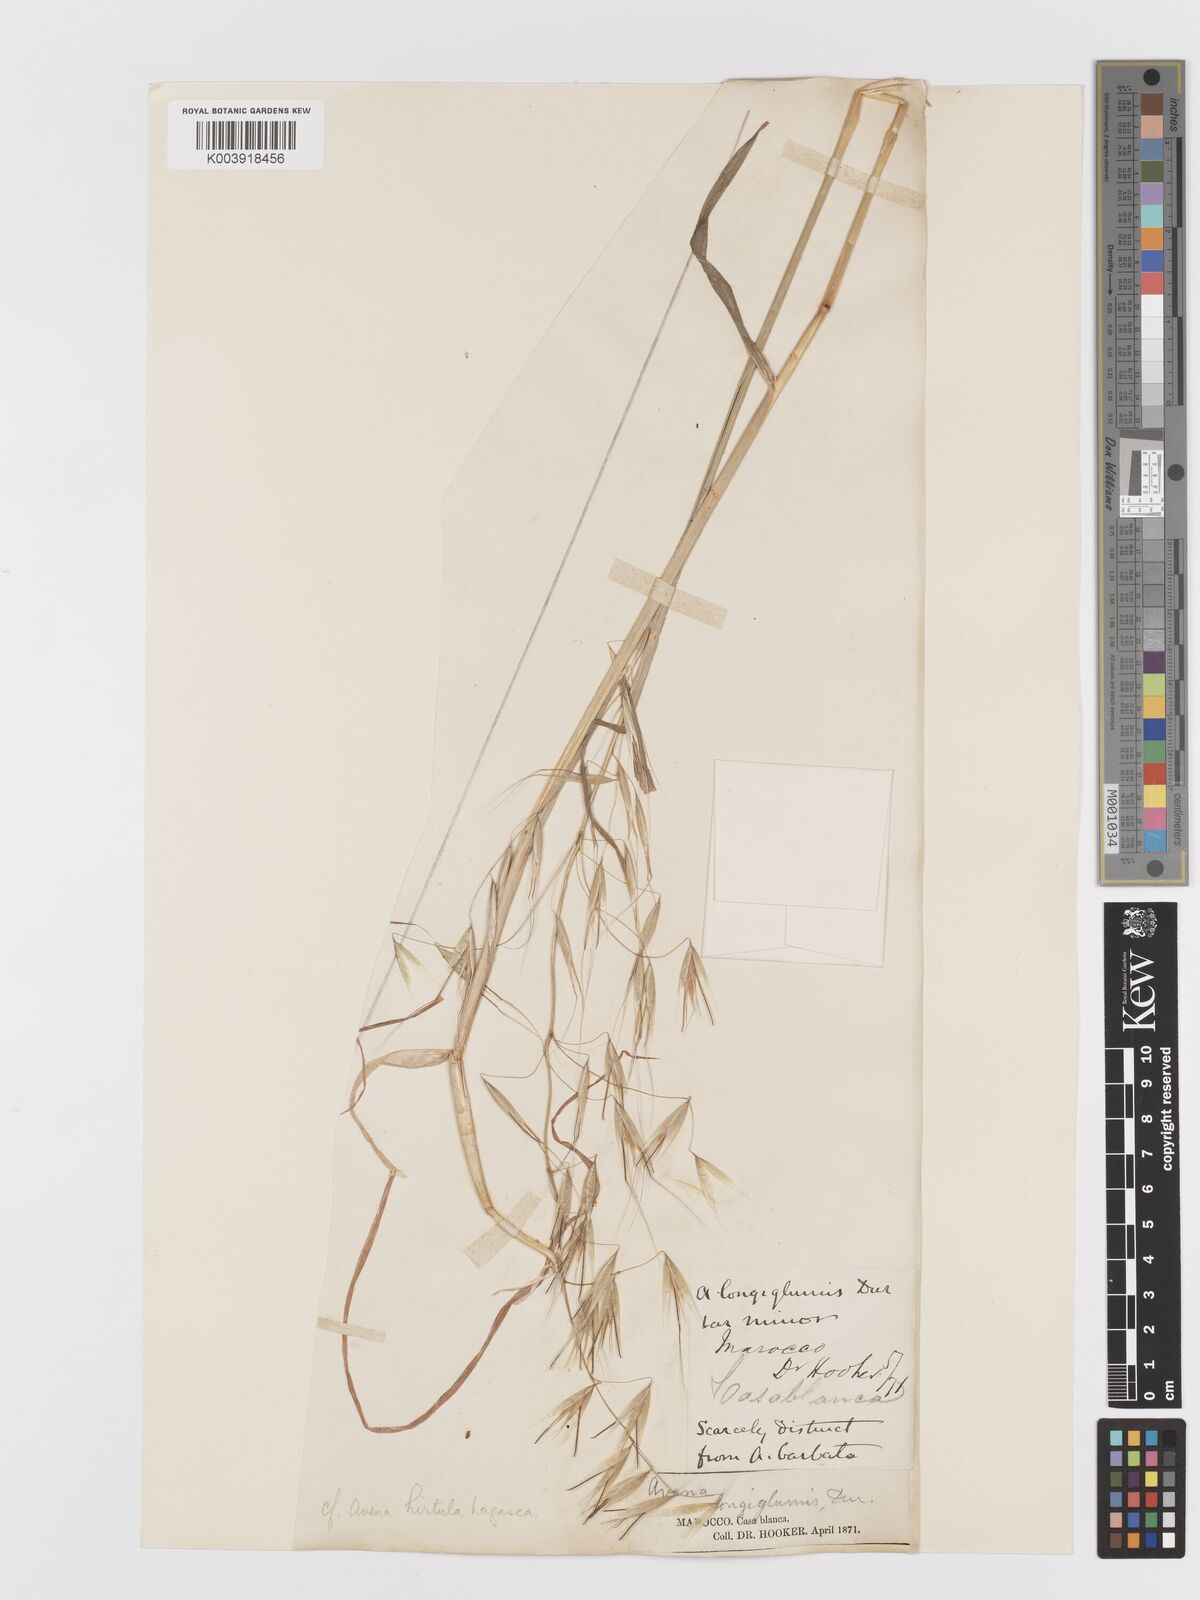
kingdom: Plantae
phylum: Tracheophyta
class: Liliopsida
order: Poales
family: Poaceae
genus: Avena
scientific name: Avena
